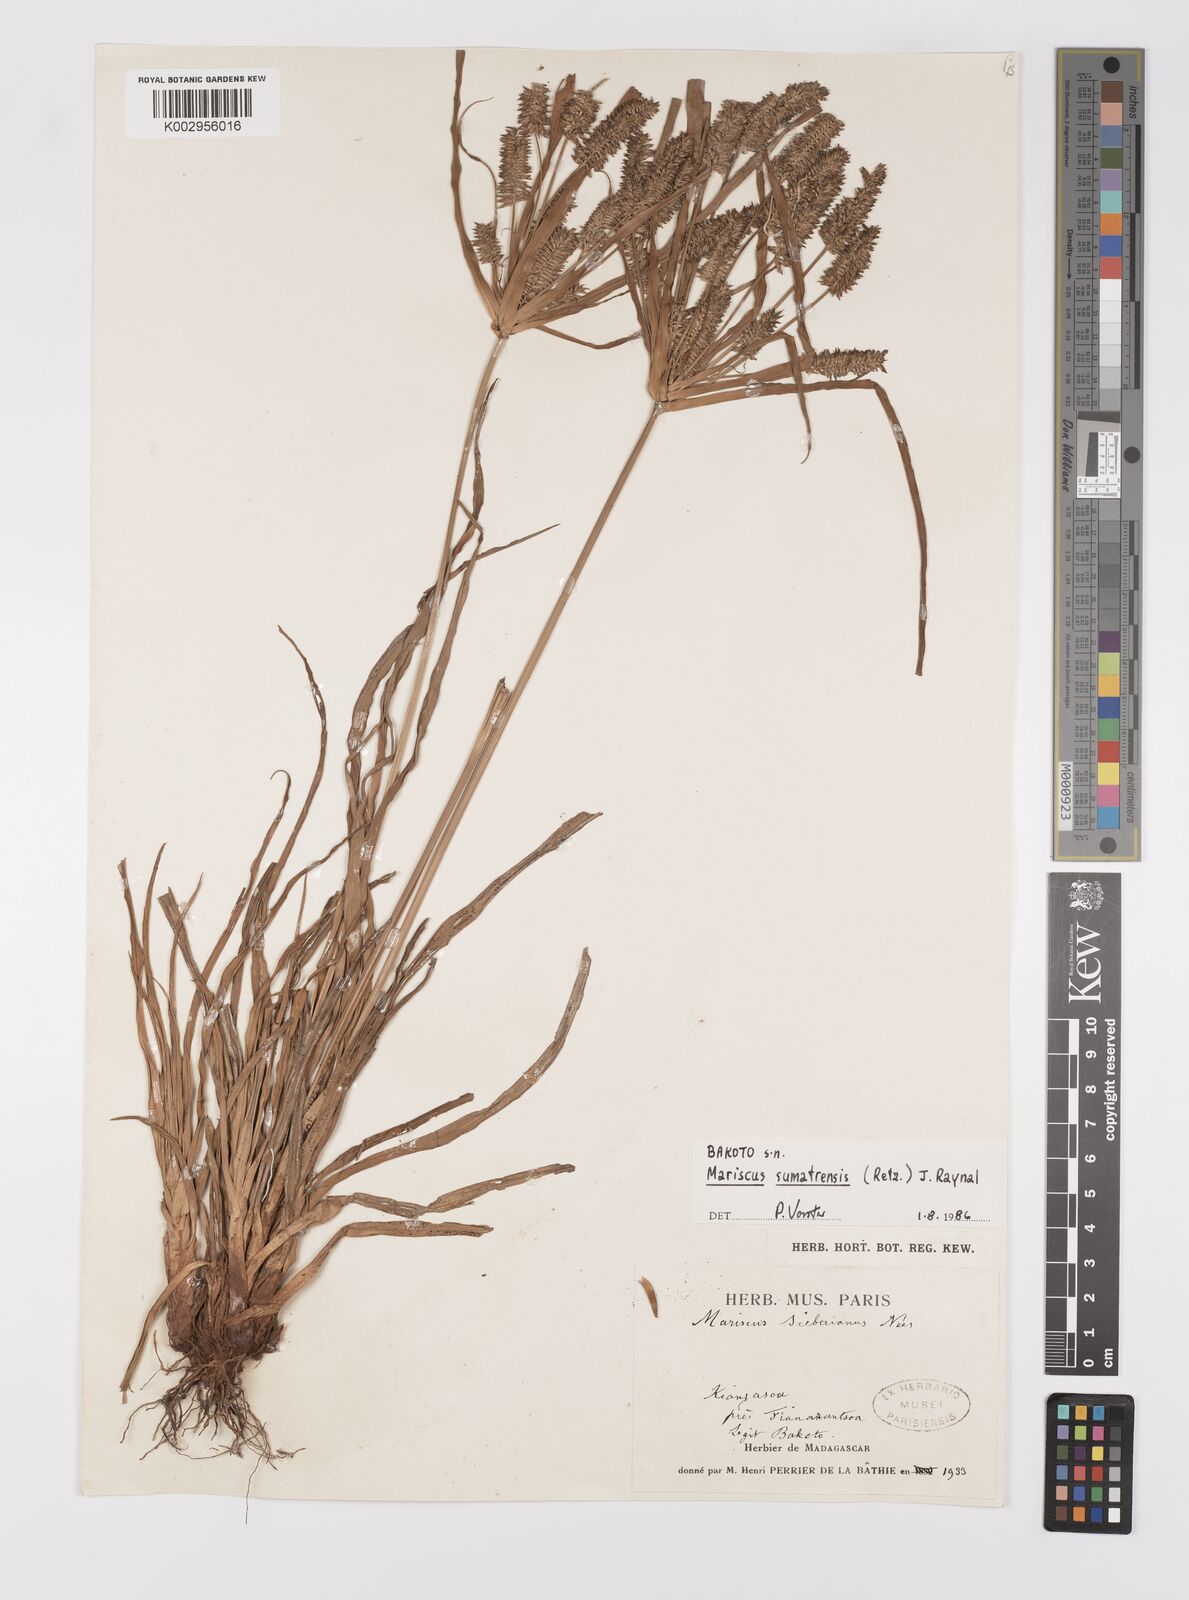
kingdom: Plantae
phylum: Tracheophyta
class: Liliopsida
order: Poales
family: Cyperaceae
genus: Cyperus
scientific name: Cyperus cyperoides
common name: Pacific island flat sedge
